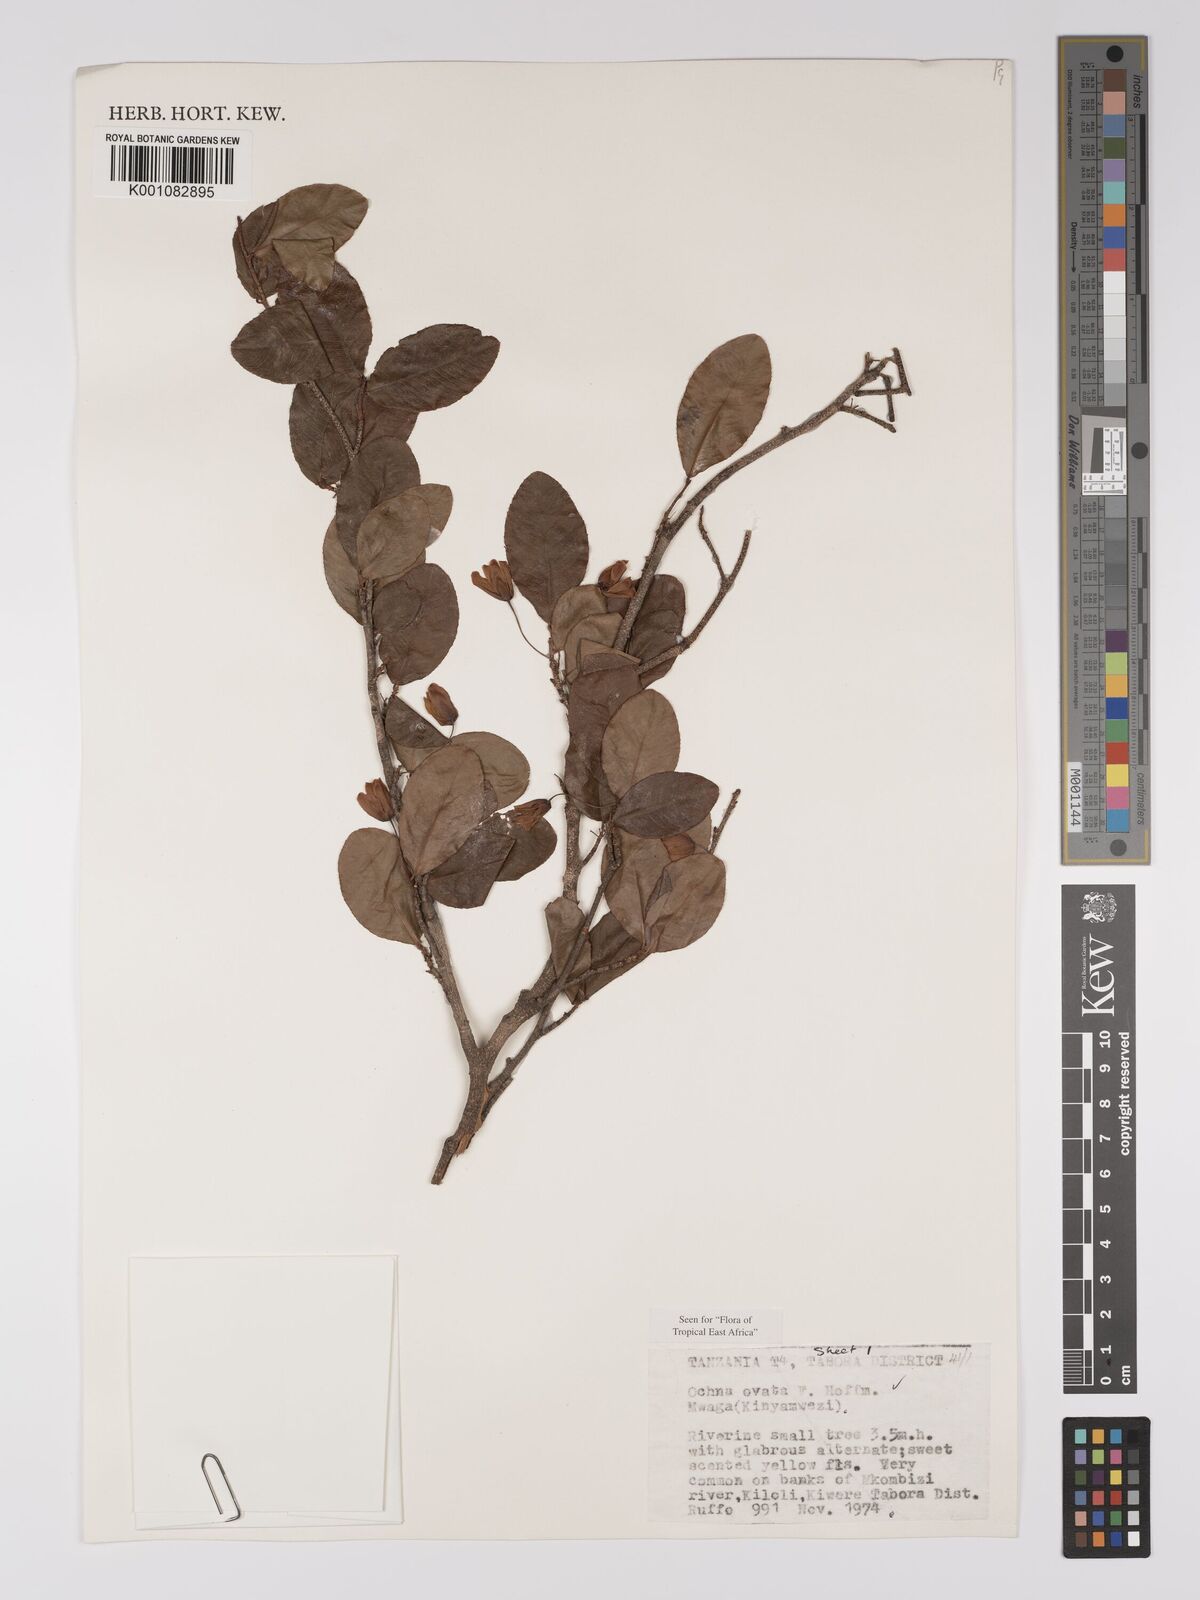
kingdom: Plantae
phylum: Tracheophyta
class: Magnoliopsida
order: Malpighiales
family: Ochnaceae
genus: Ochna
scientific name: Ochna ovata
